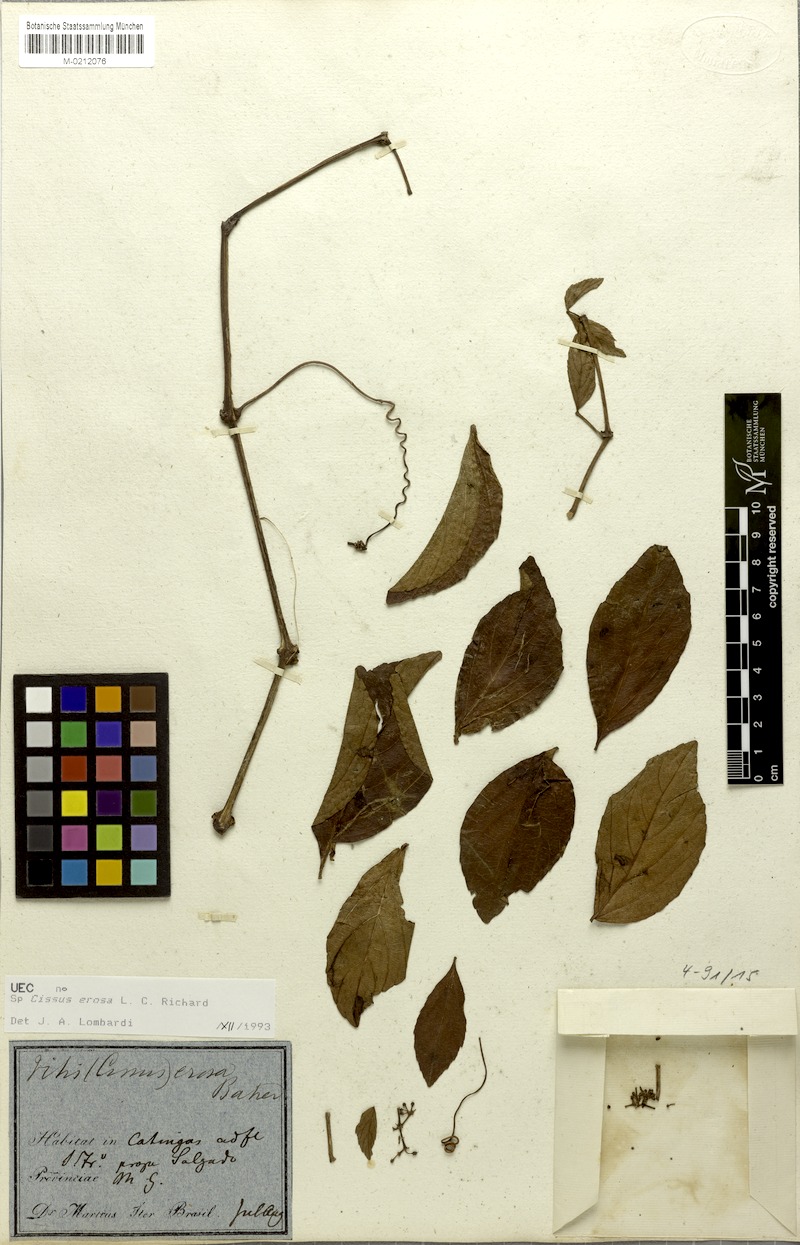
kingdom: Plantae
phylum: Tracheophyta
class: Magnoliopsida
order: Vitales
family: Vitaceae
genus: Cissus
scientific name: Cissus erosa
